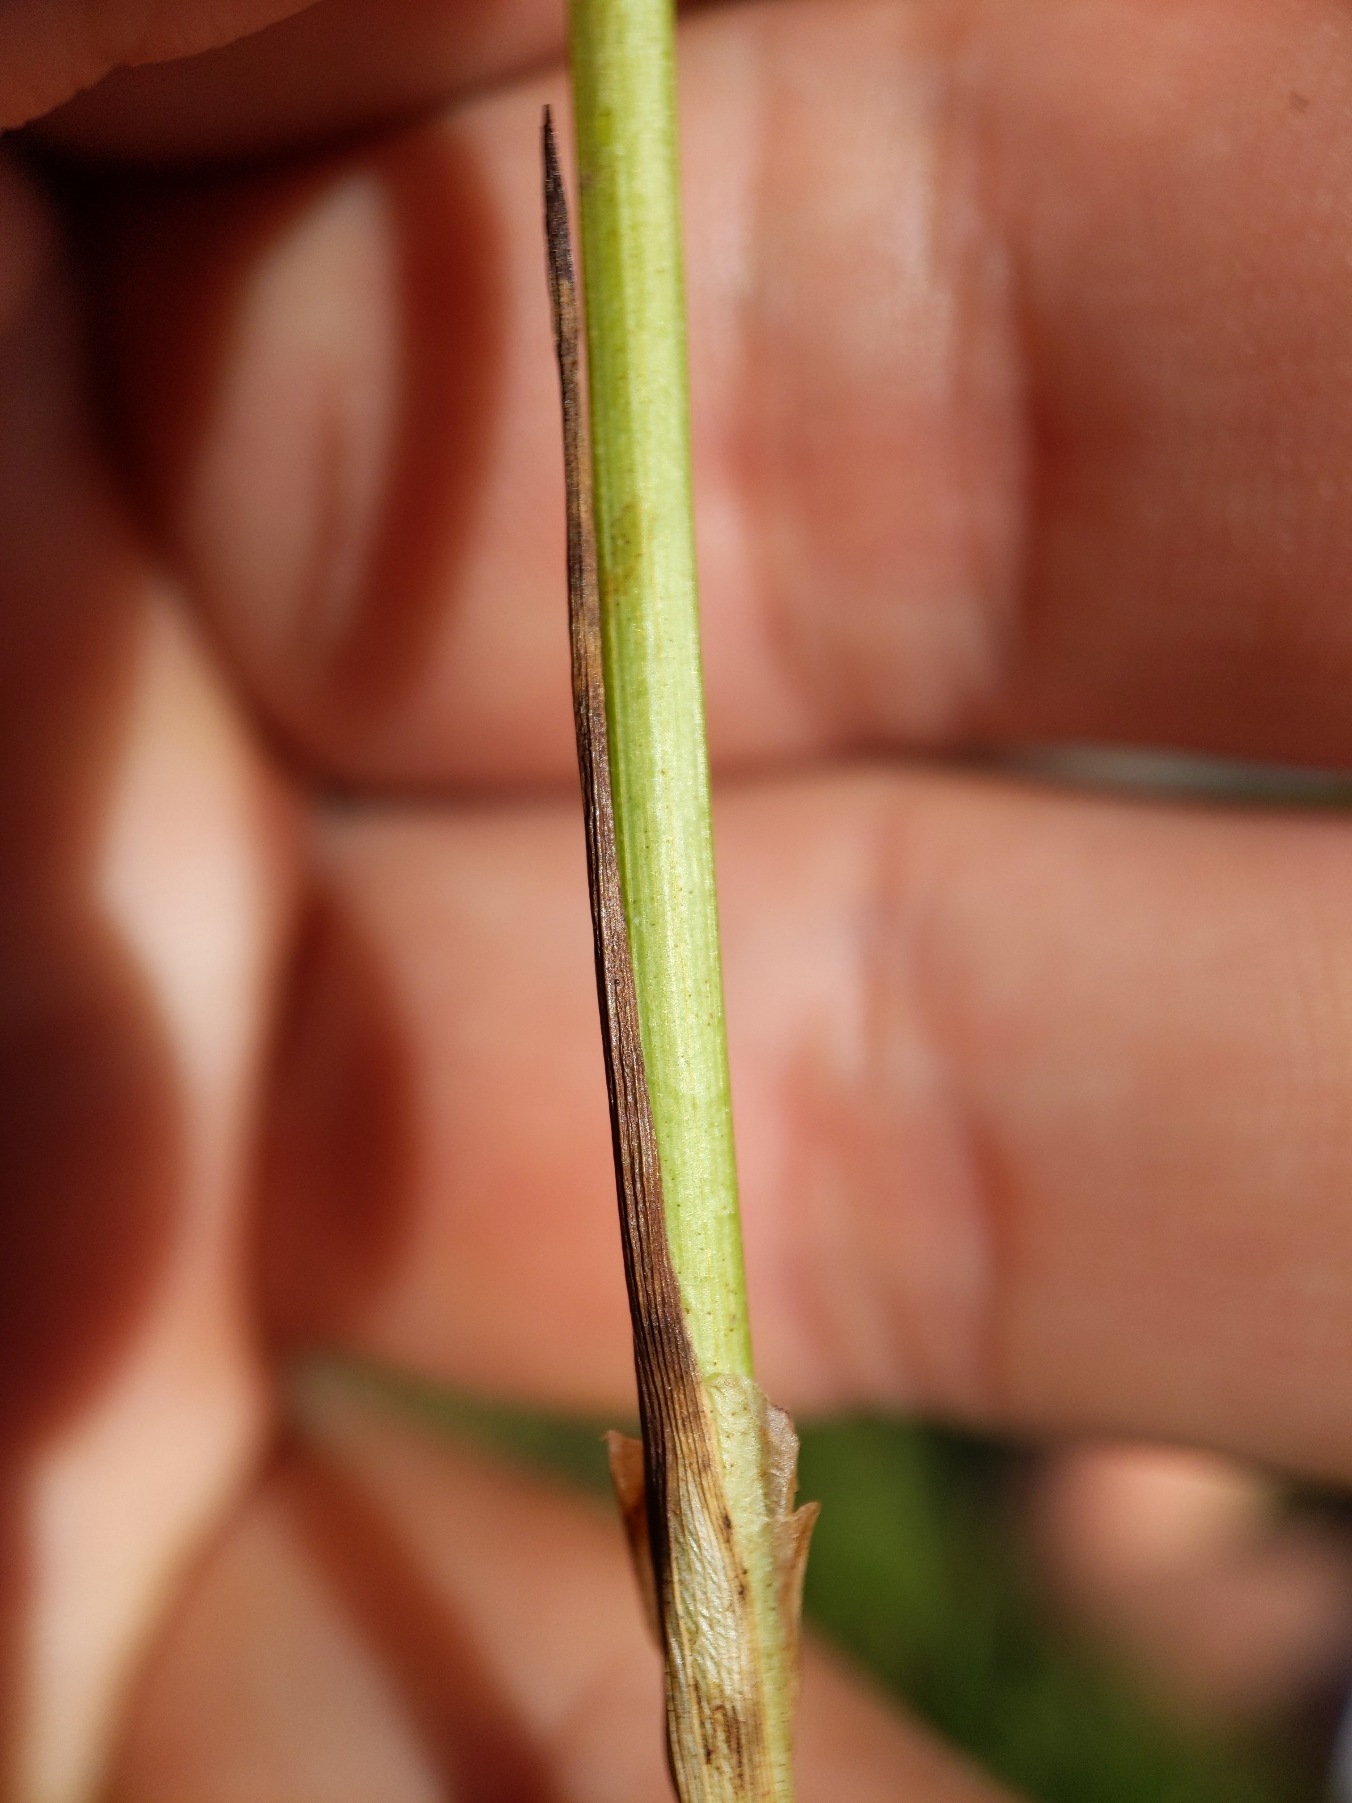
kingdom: Plantae
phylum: Tracheophyta
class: Liliopsida
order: Poales
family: Cyperaceae
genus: Carex
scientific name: Carex diandra
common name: Trindstænglet star
